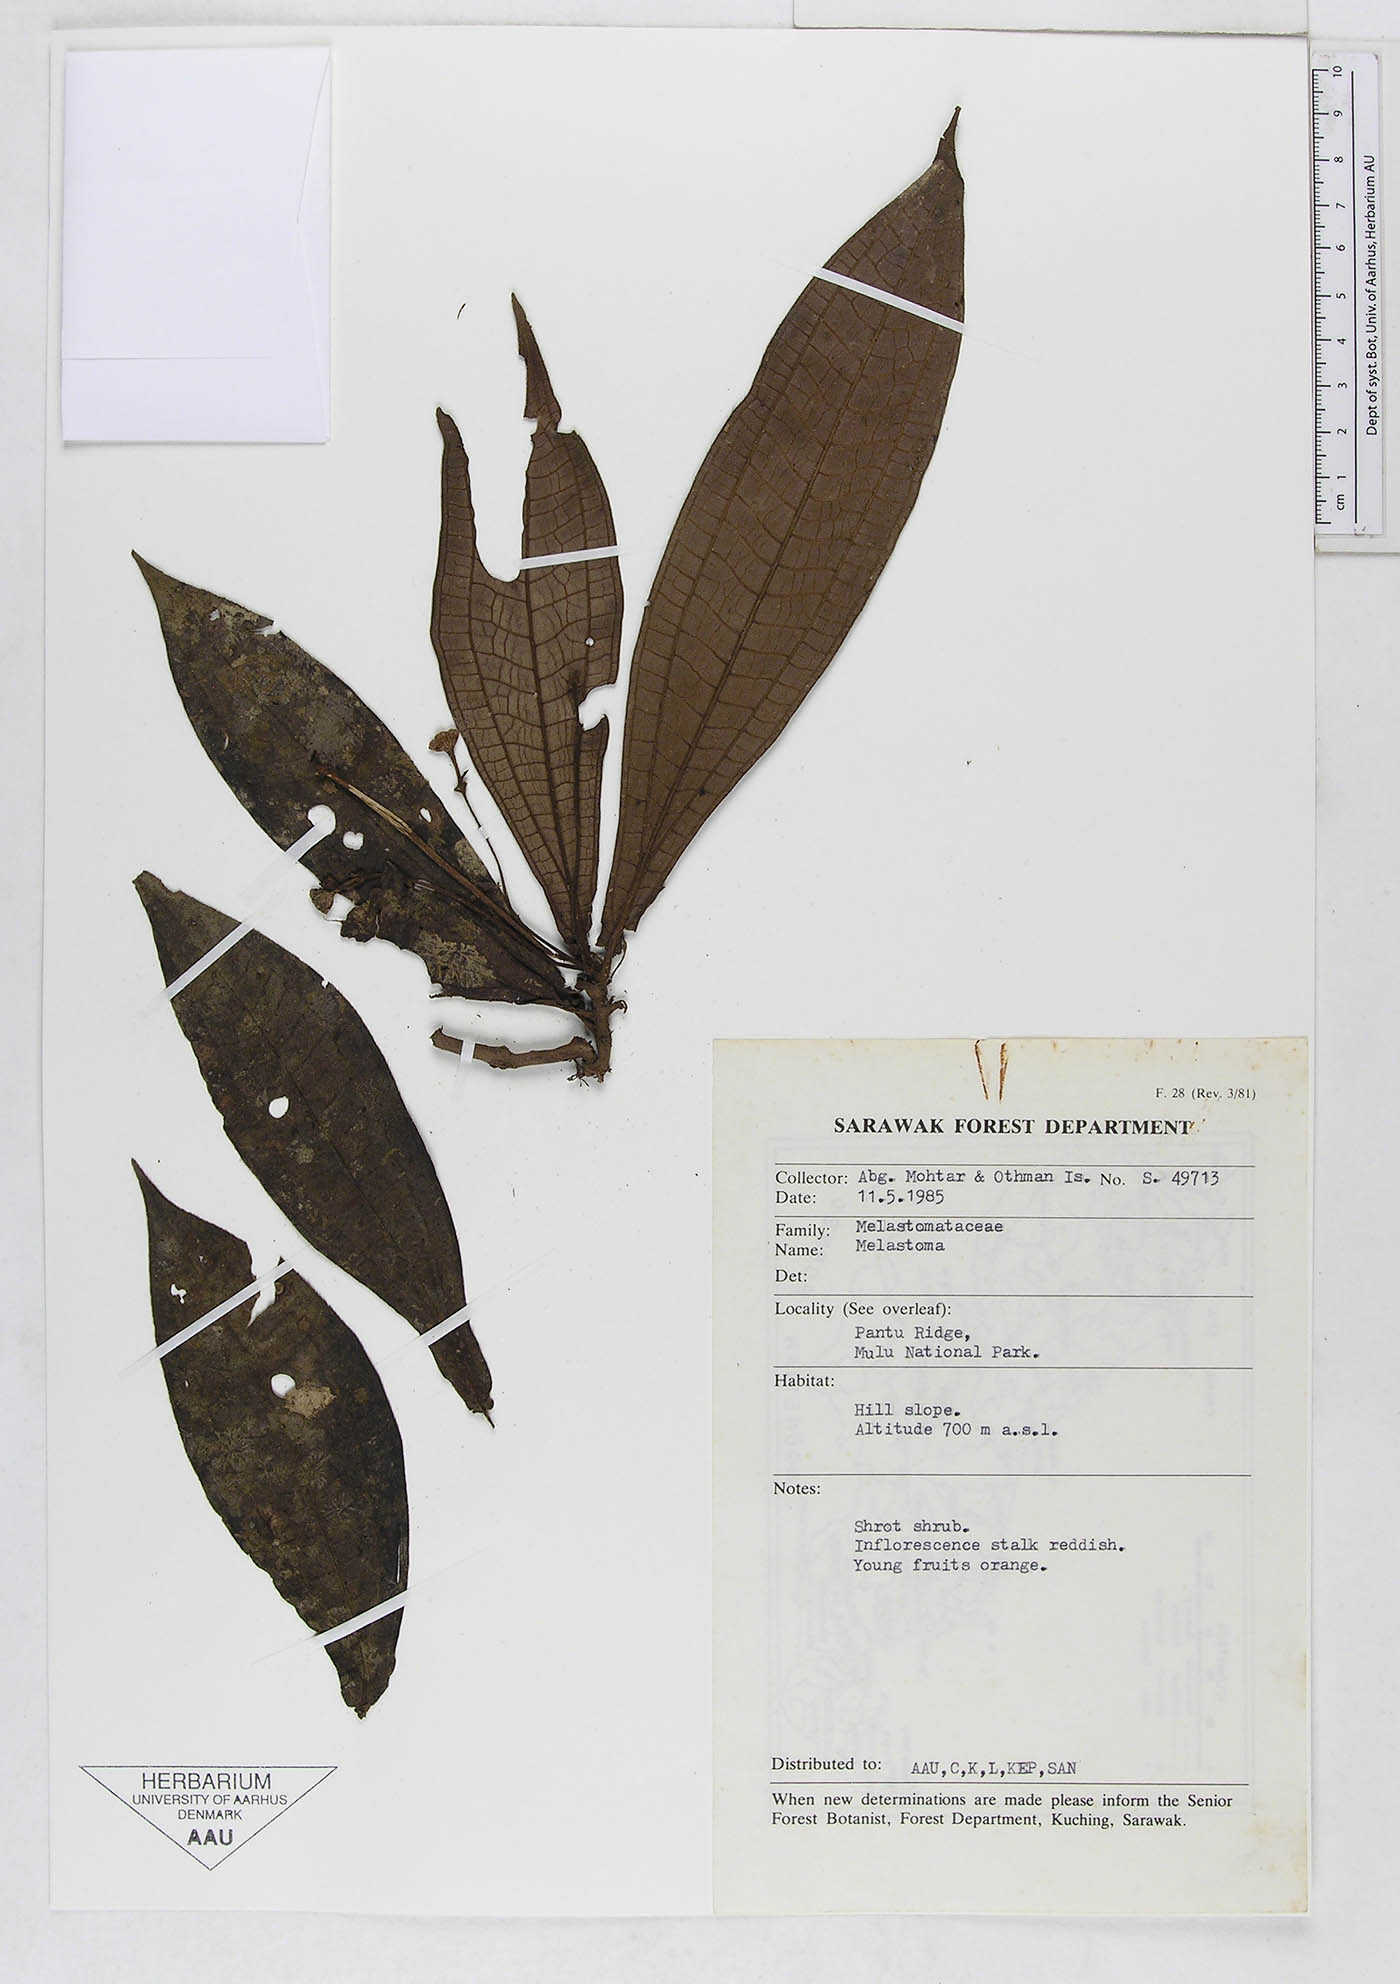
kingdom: Plantae
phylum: Tracheophyta
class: Magnoliopsida
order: Myrtales
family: Melastomataceae
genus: Melastoma
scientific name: Melastoma
